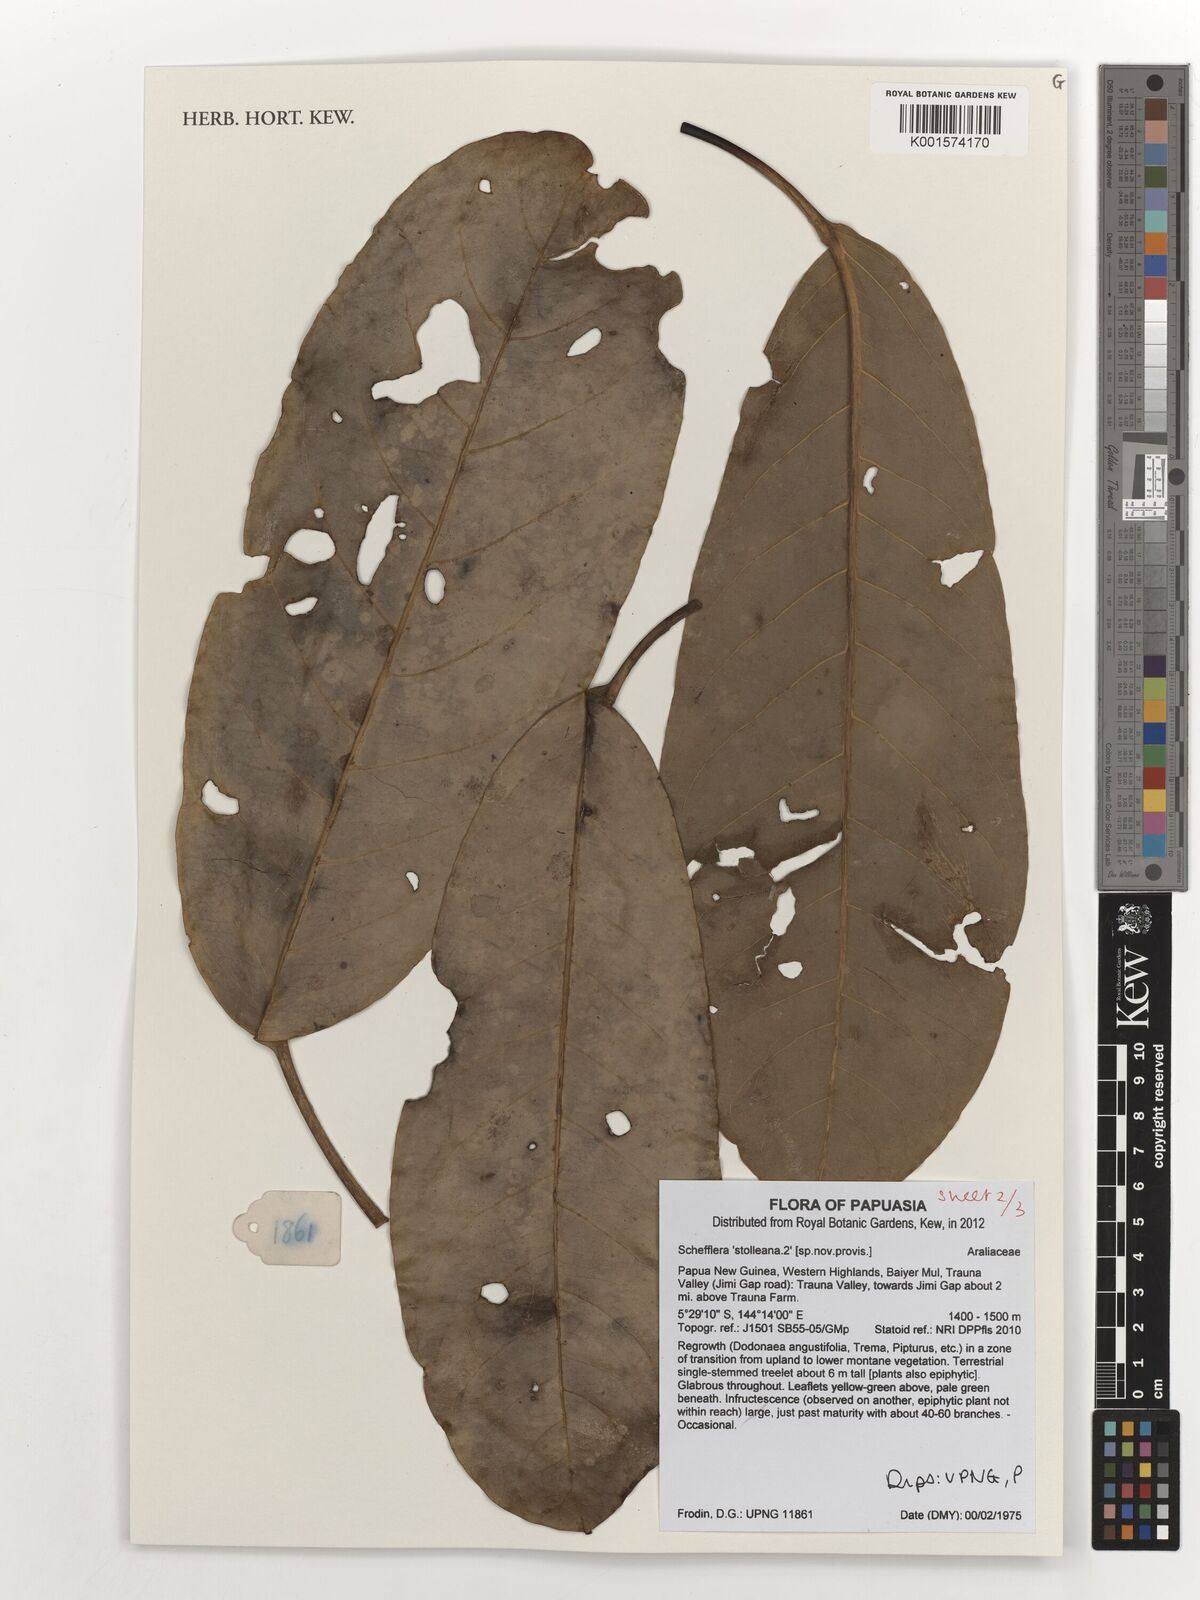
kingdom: Plantae
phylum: Tracheophyta
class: Magnoliopsida
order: Apiales
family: Araliaceae
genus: Heptapleurum
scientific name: Heptapleurum stolleanum
